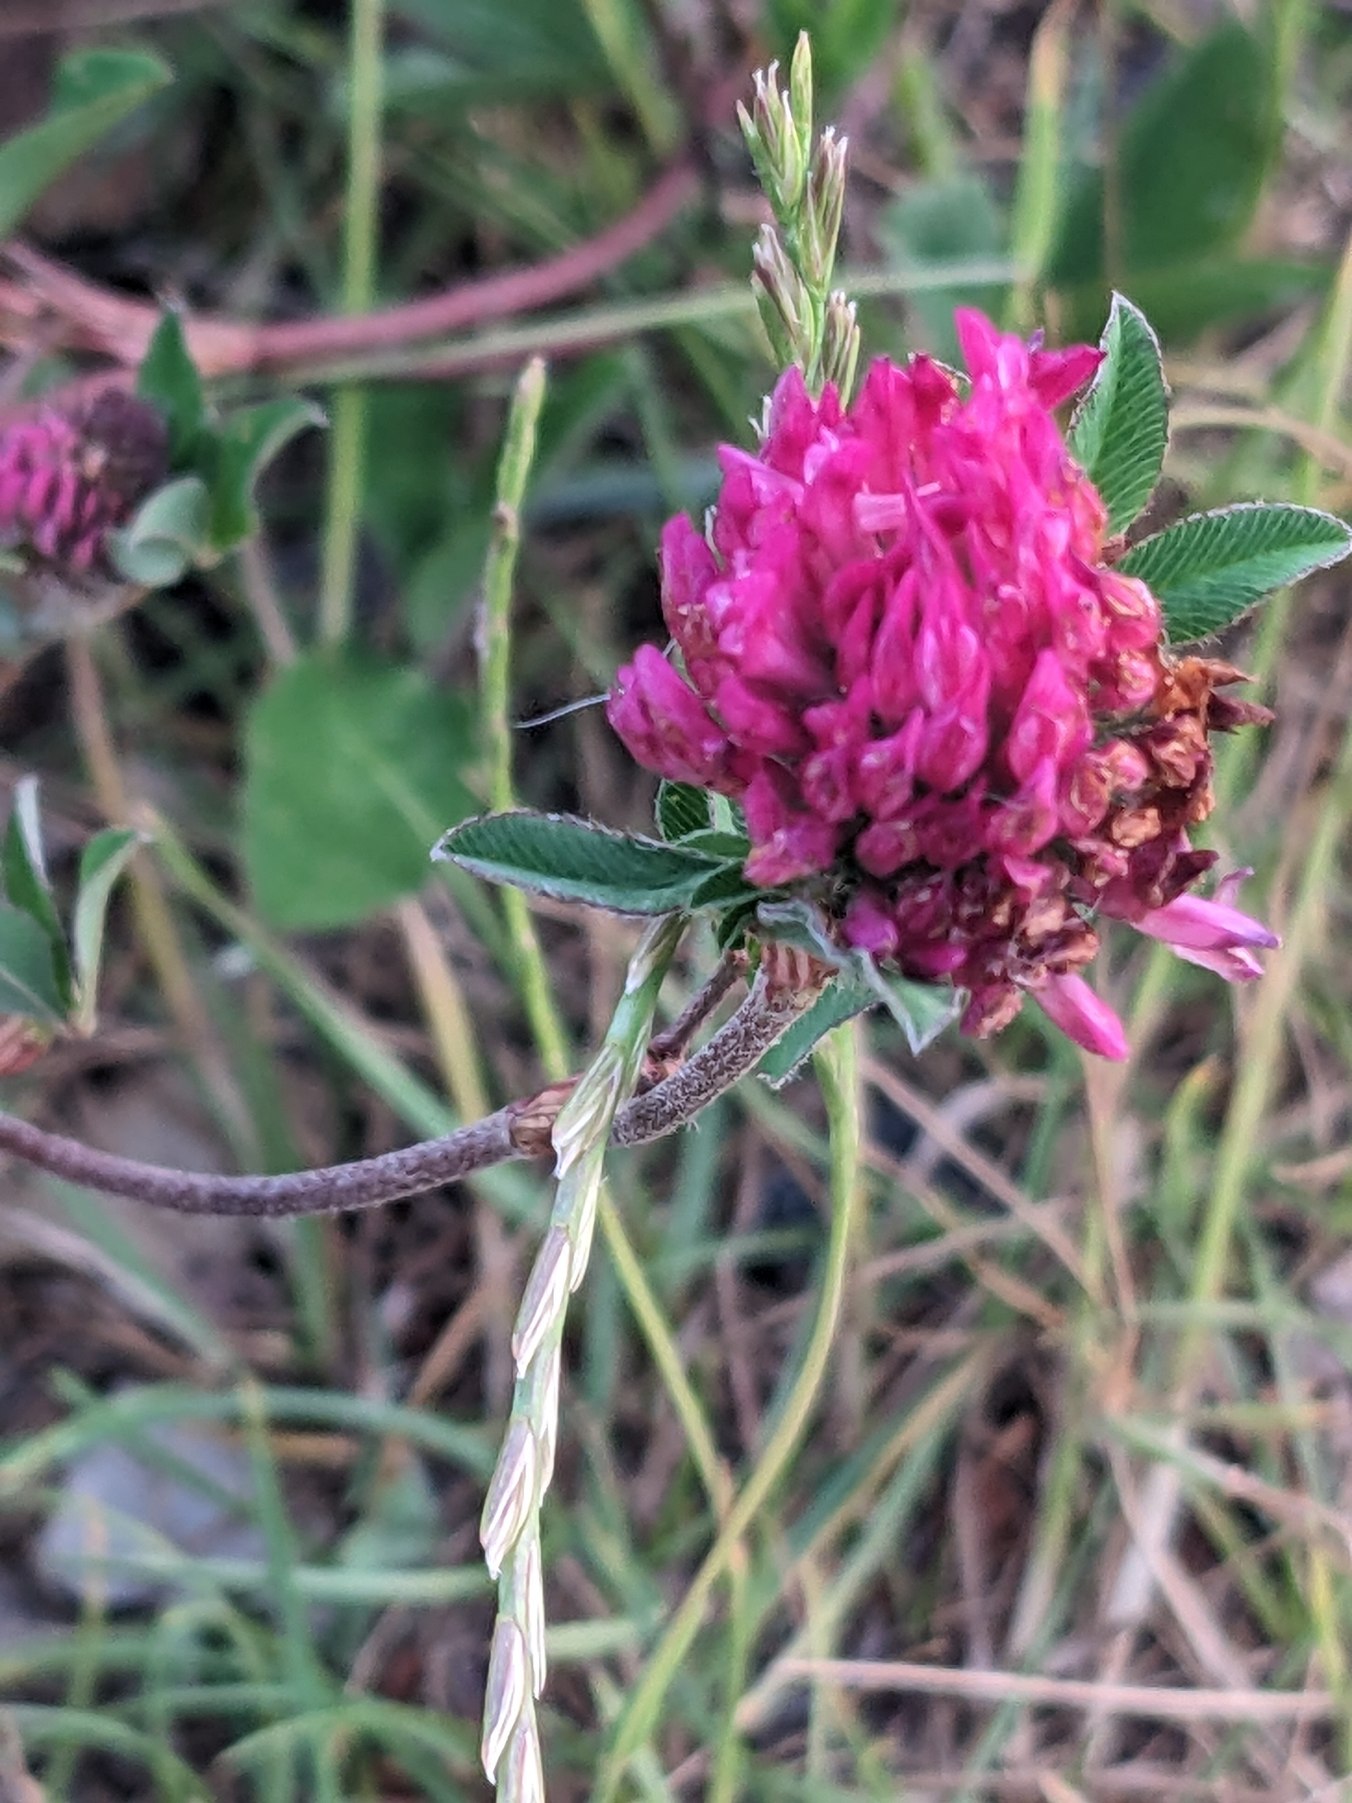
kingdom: Plantae
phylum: Tracheophyta
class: Magnoliopsida
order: Fabales
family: Fabaceae
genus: Trifolium
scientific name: Trifolium pratense
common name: Rød-kløver
